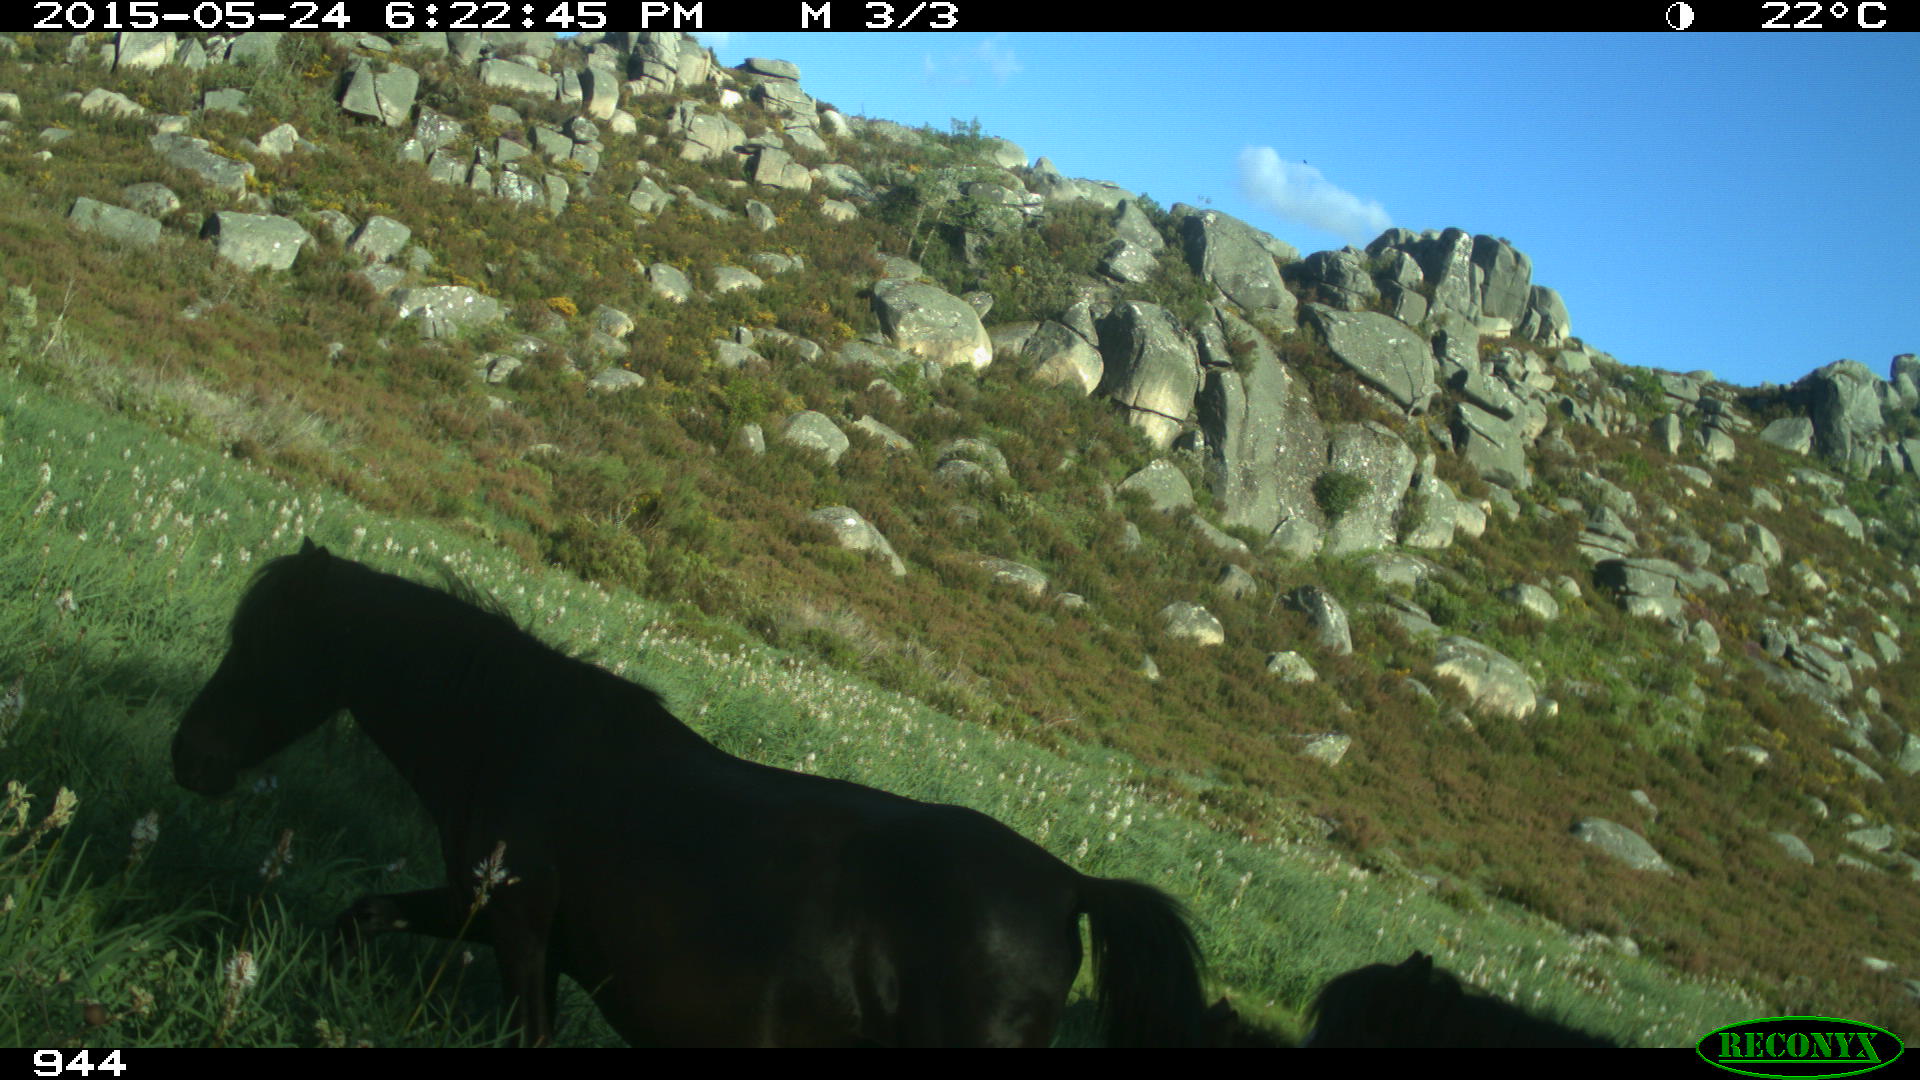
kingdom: Animalia
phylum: Chordata
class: Mammalia
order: Perissodactyla
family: Equidae
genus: Equus
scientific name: Equus caballus
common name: Horse
